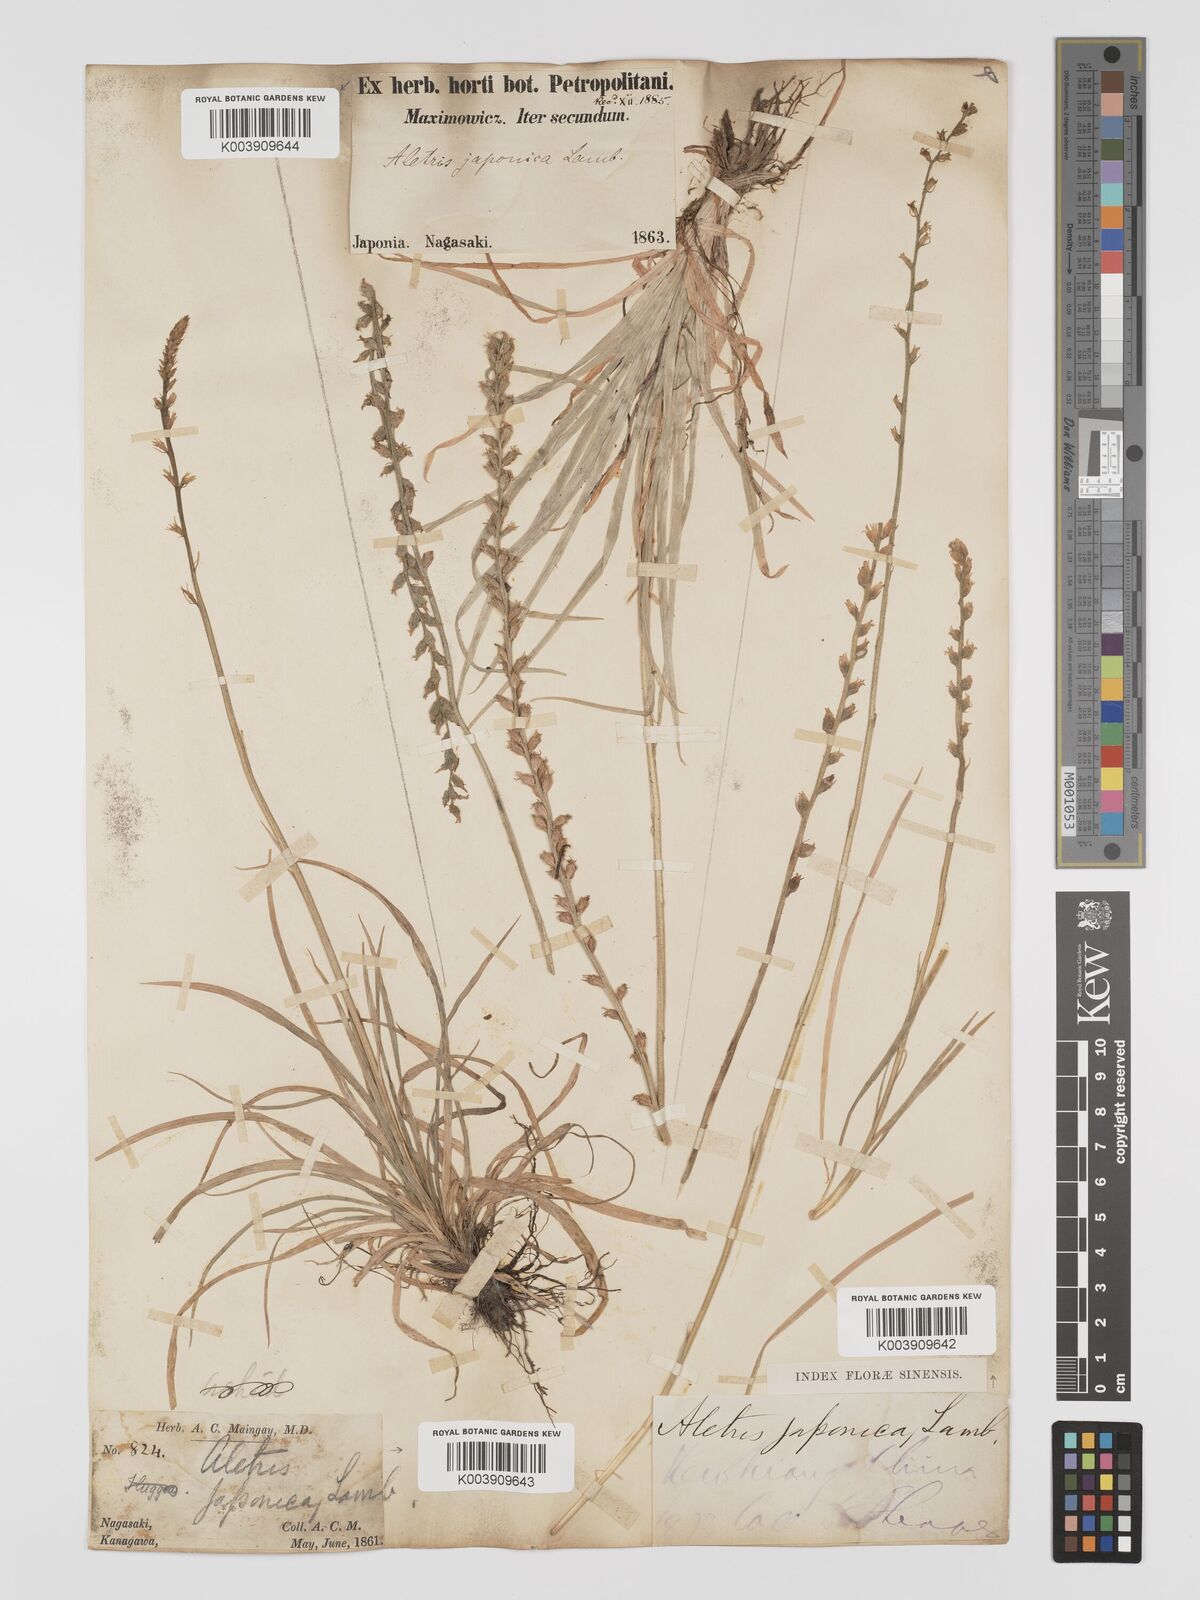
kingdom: Plantae
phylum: Tracheophyta
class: Liliopsida
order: Dioscoreales
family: Nartheciaceae
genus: Aletris
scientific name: Aletris spicata
